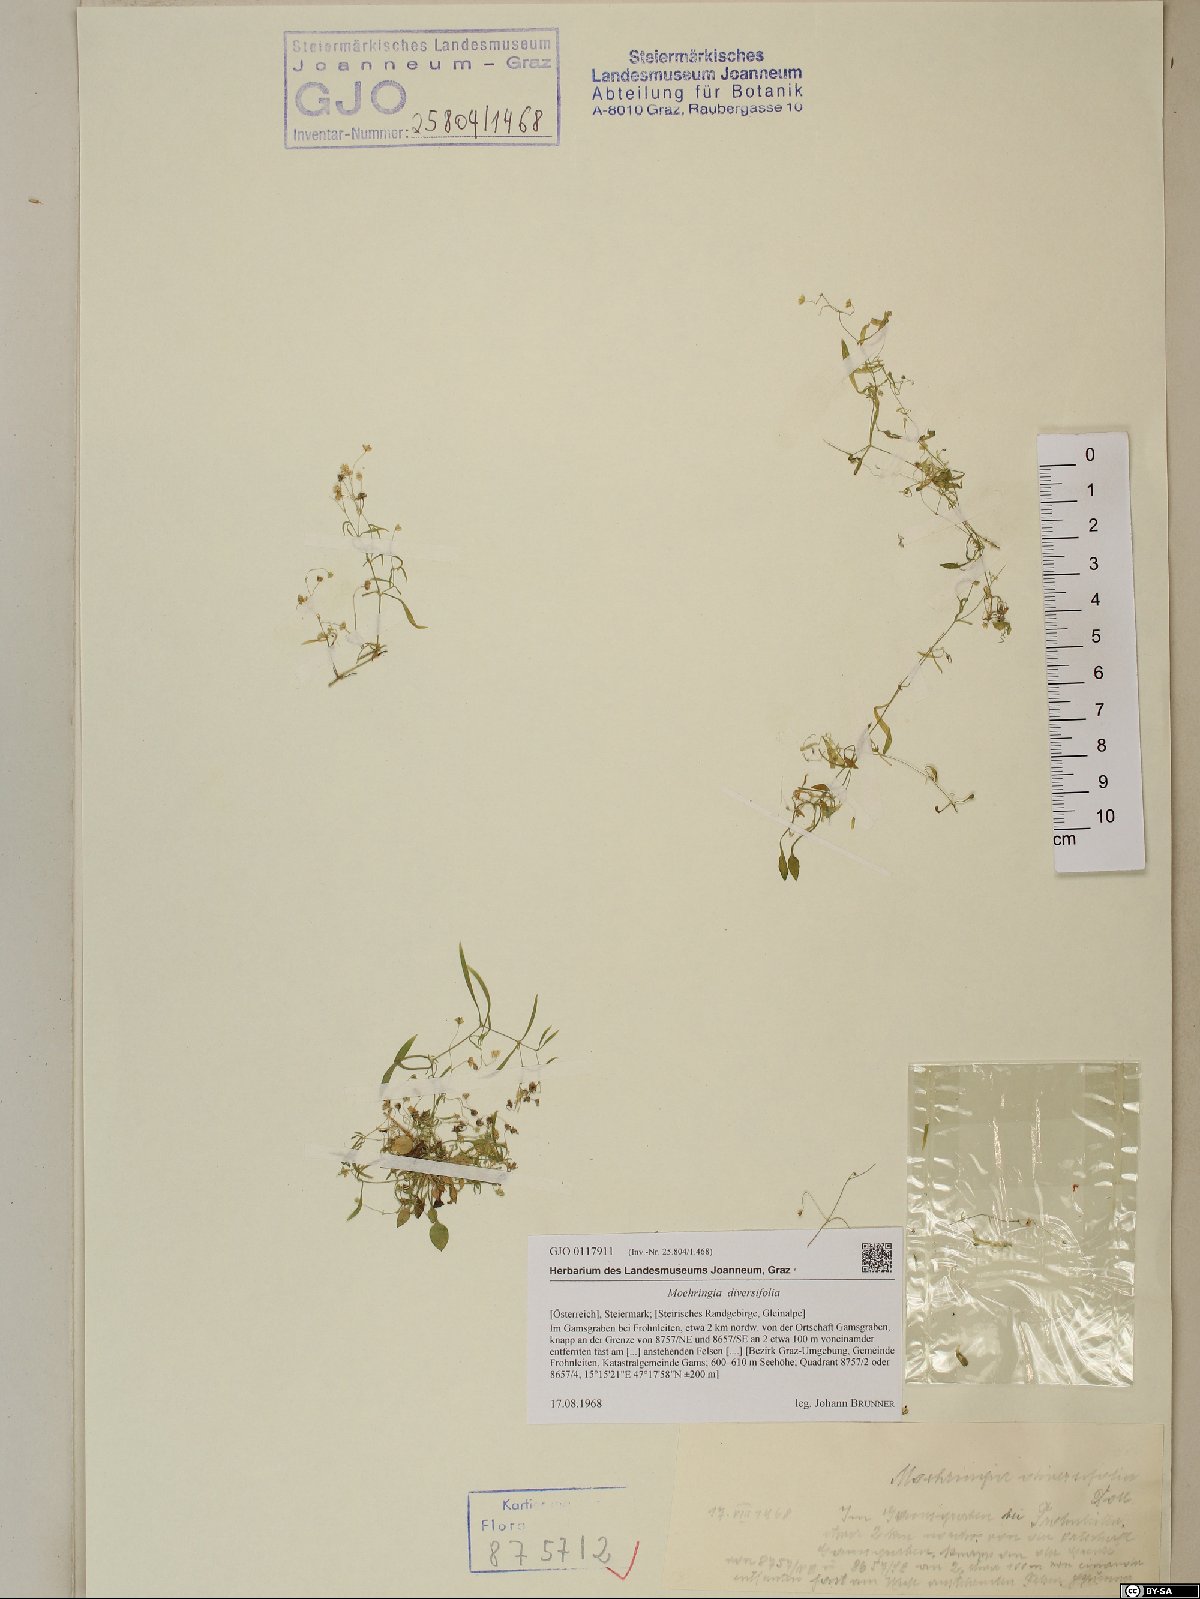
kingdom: Plantae
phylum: Tracheophyta
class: Magnoliopsida
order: Caryophyllales
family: Caryophyllaceae
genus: Moehringia
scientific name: Moehringia diversifolia
